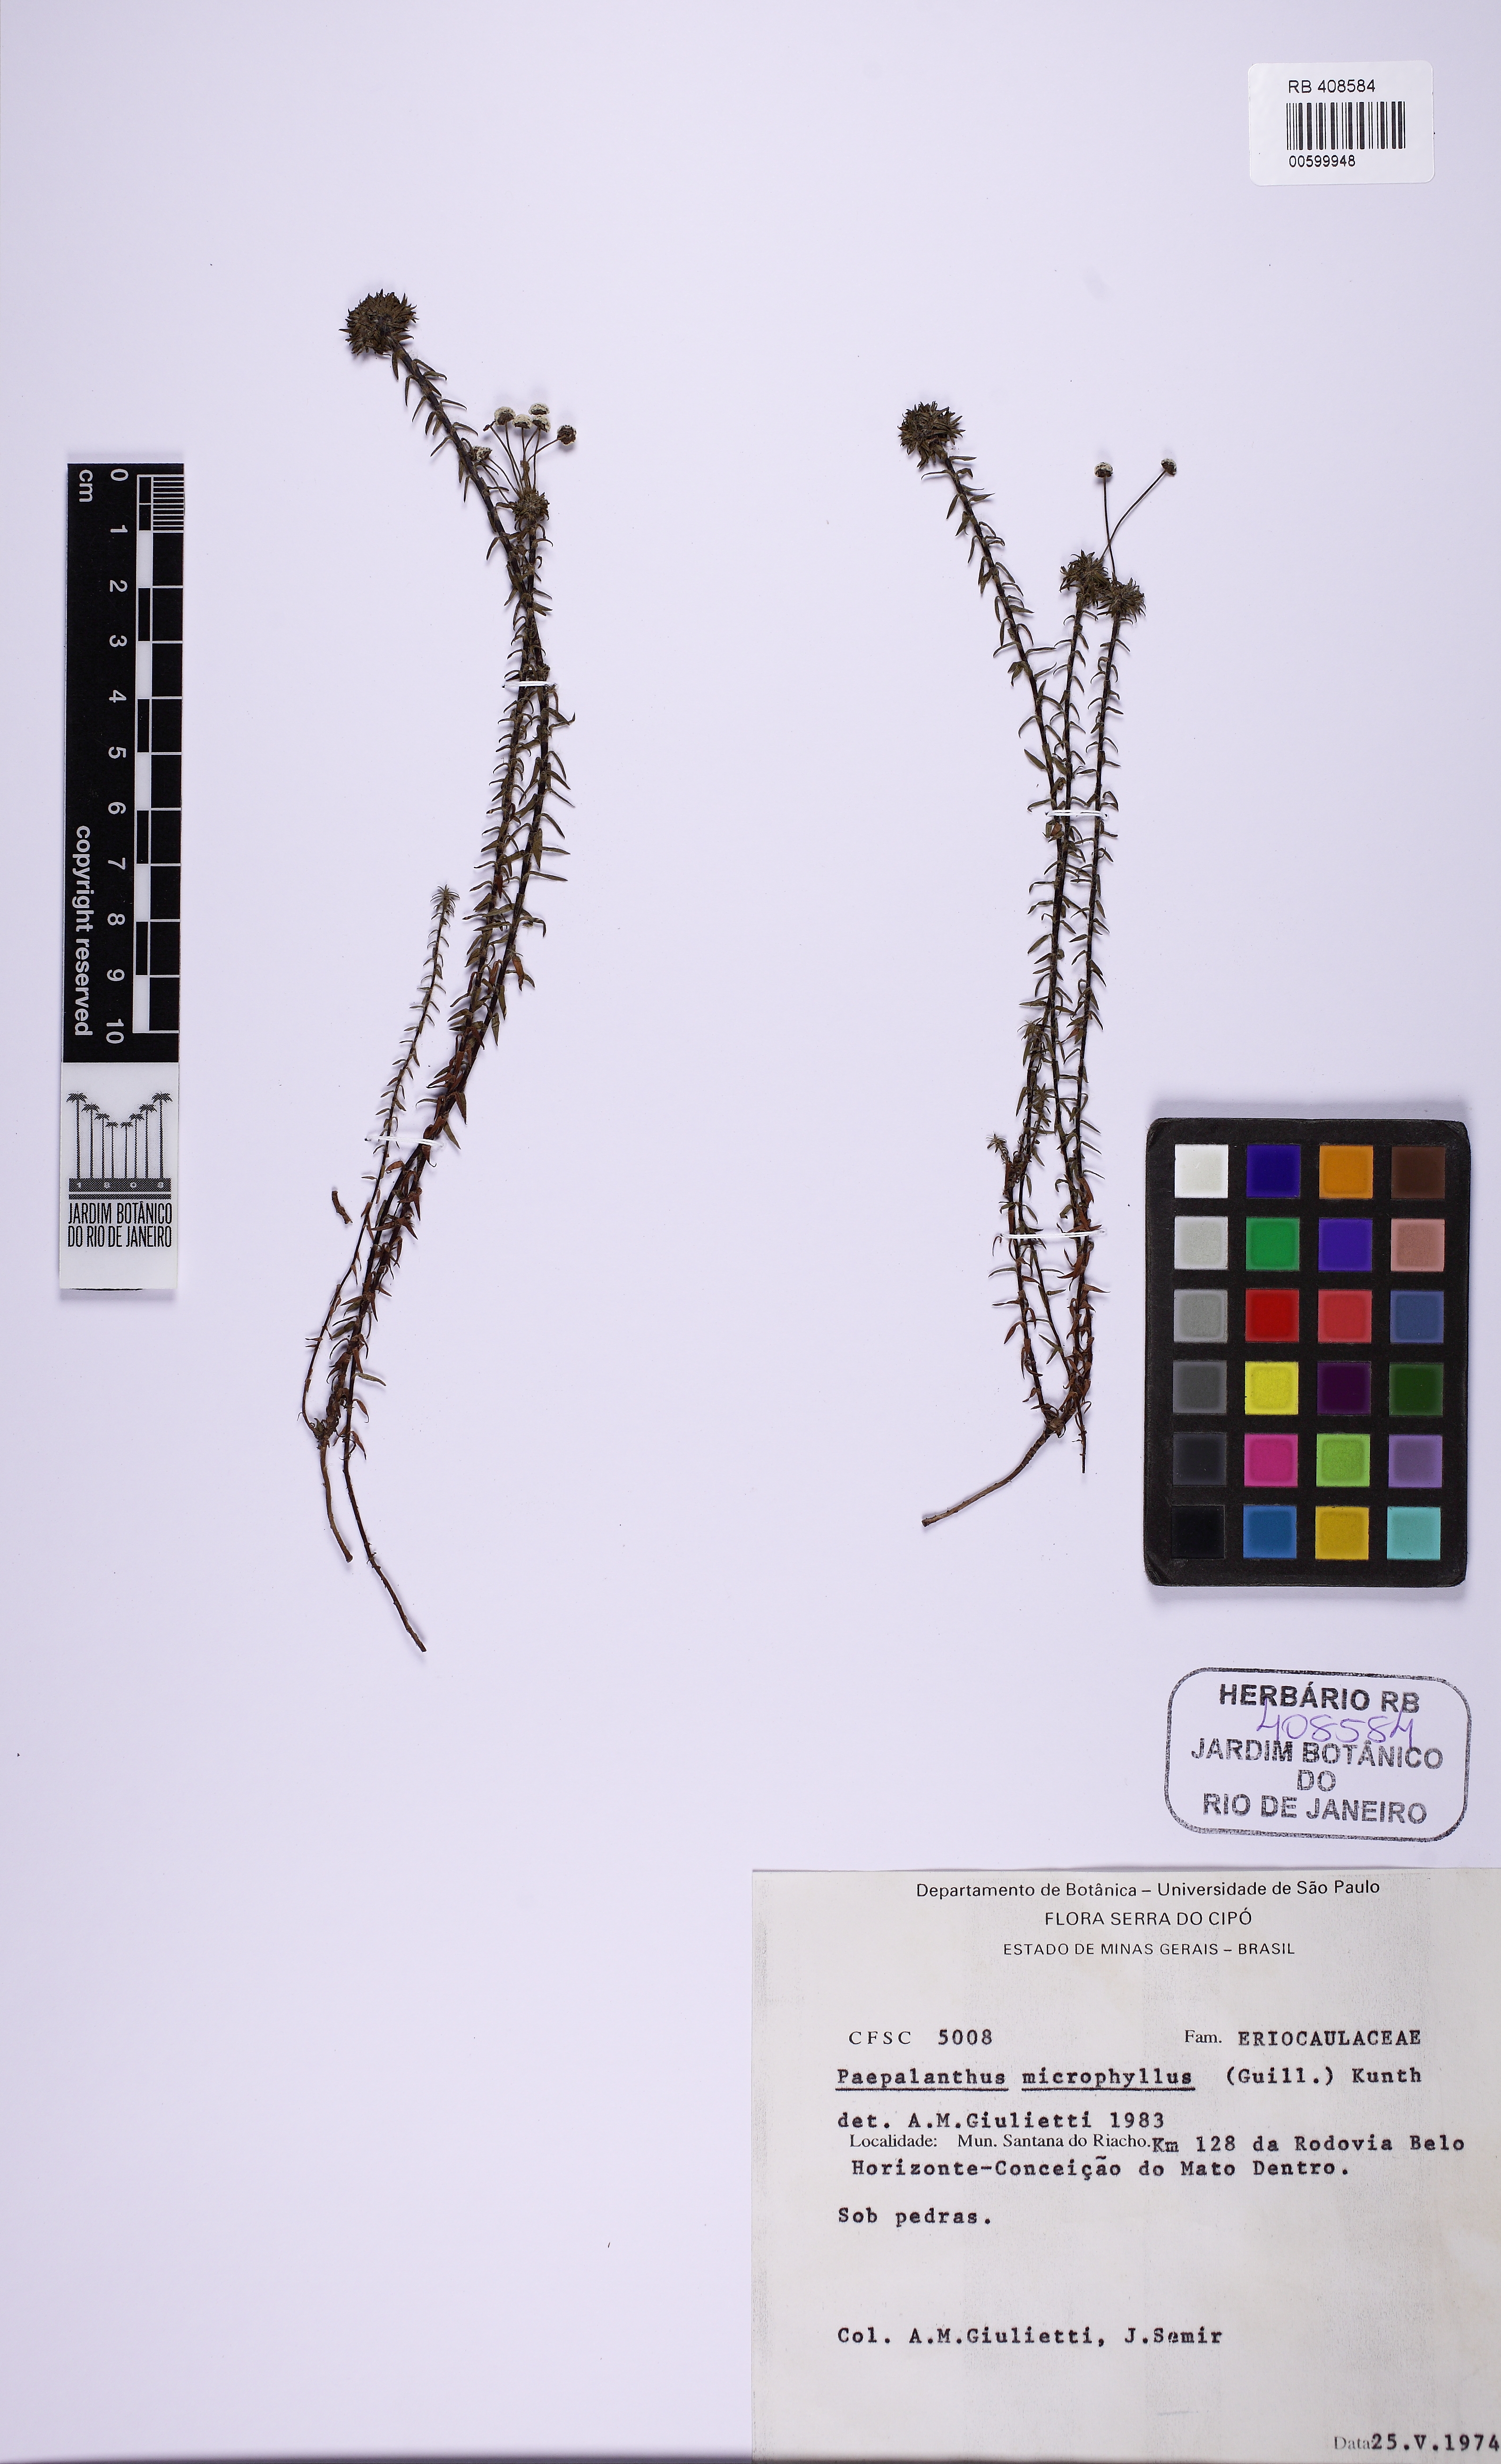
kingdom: Plantae
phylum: Tracheophyta
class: Liliopsida
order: Poales
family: Eriocaulaceae
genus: Paepalanthus
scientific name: Paepalanthus microphyllus
